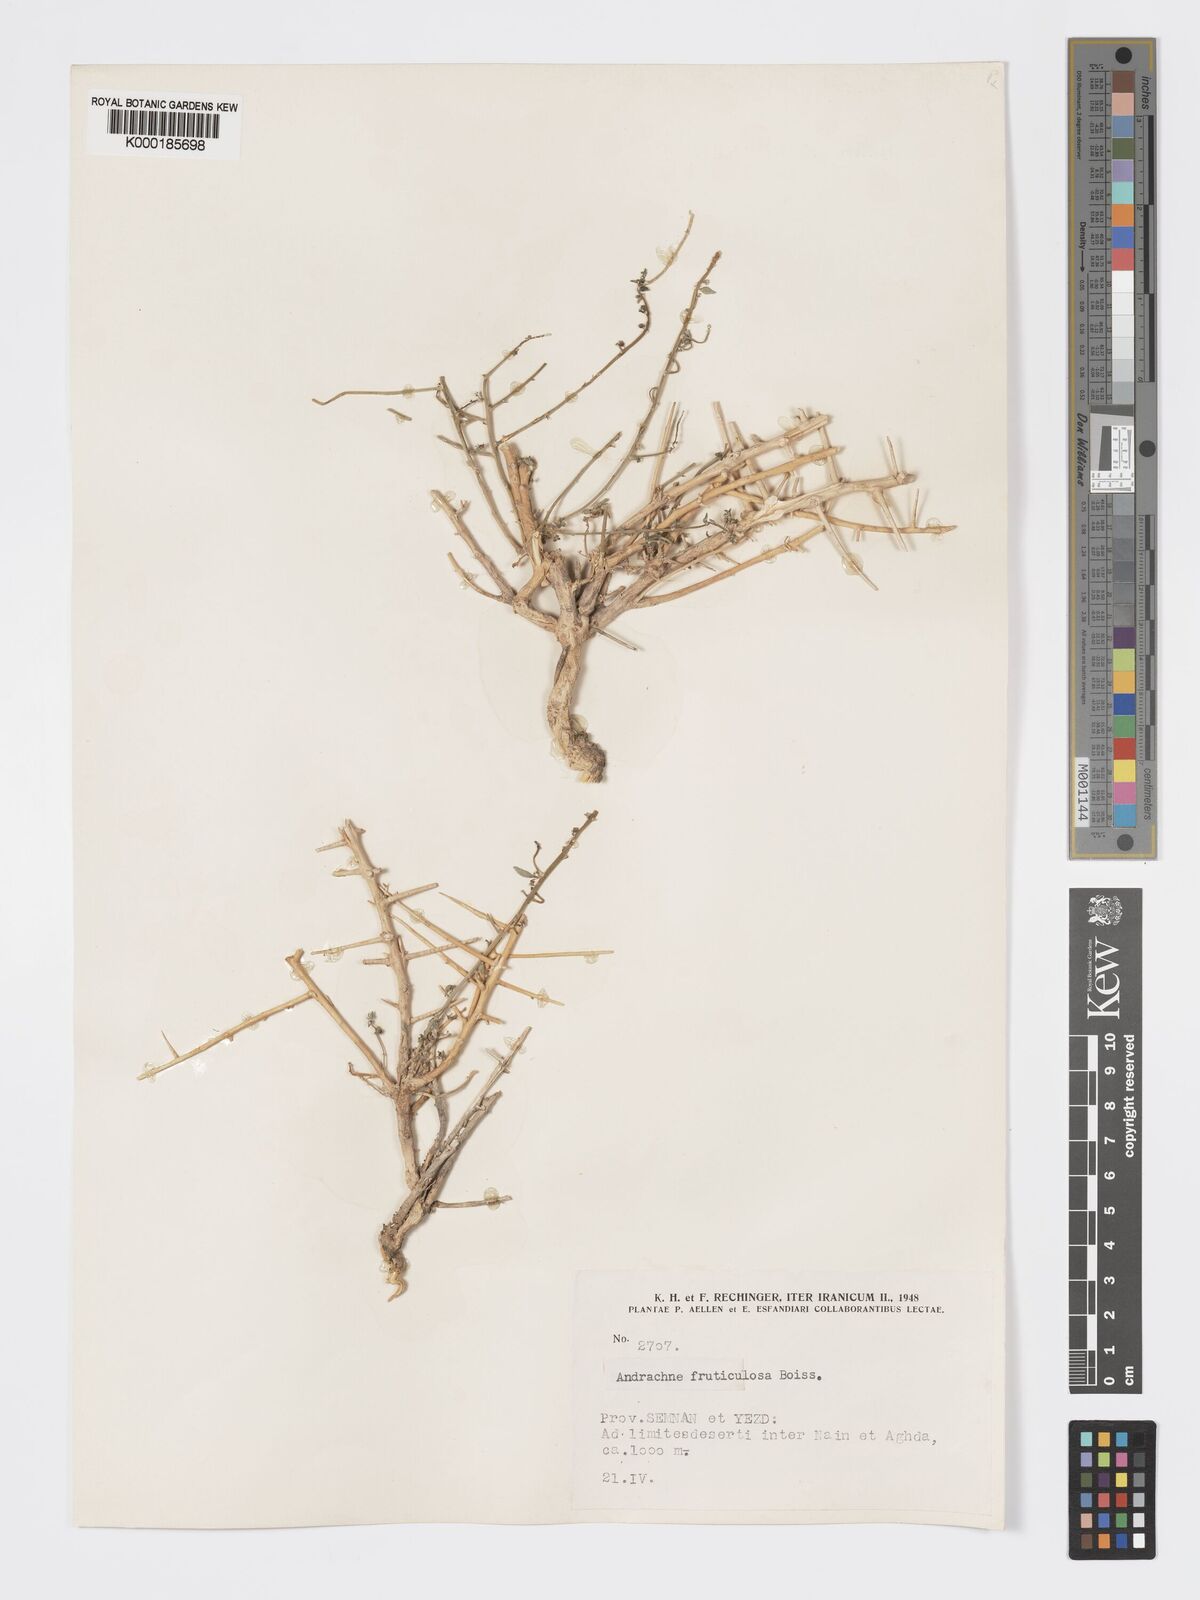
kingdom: Plantae
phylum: Tracheophyta
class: Magnoliopsida
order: Malpighiales
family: Phyllanthaceae
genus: Andrachne
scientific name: Andrachne fruticulosa
